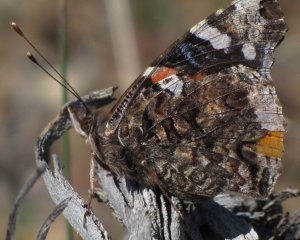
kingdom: Animalia
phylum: Arthropoda
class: Insecta
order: Lepidoptera
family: Nymphalidae
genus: Vanessa
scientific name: Vanessa atalanta
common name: Red Admiral
